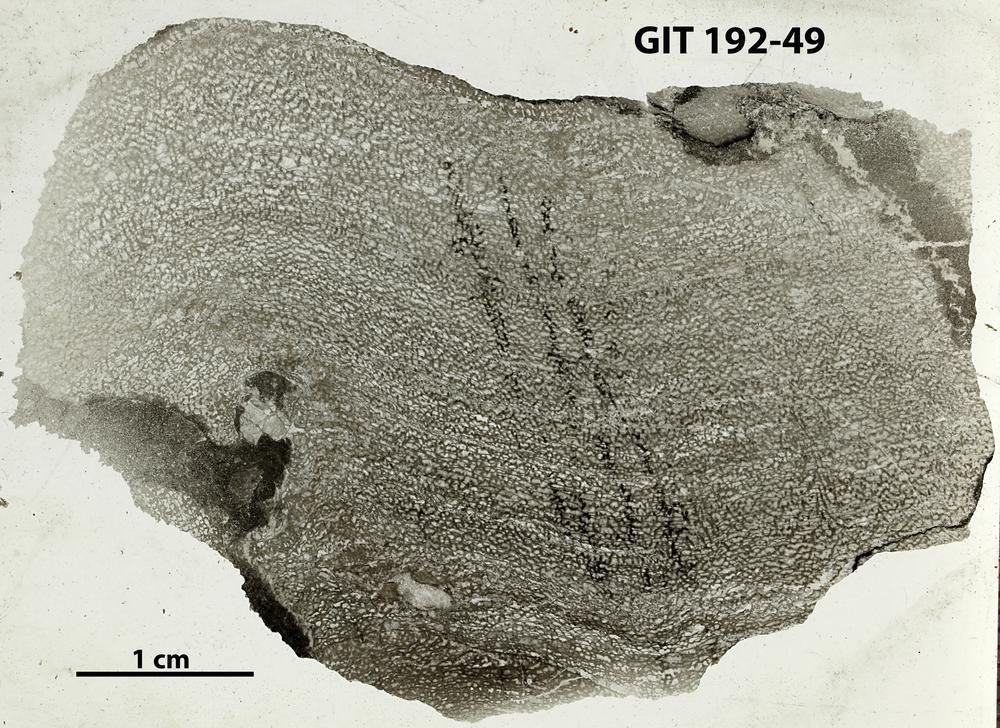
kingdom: Animalia
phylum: Porifera
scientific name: Porifera
